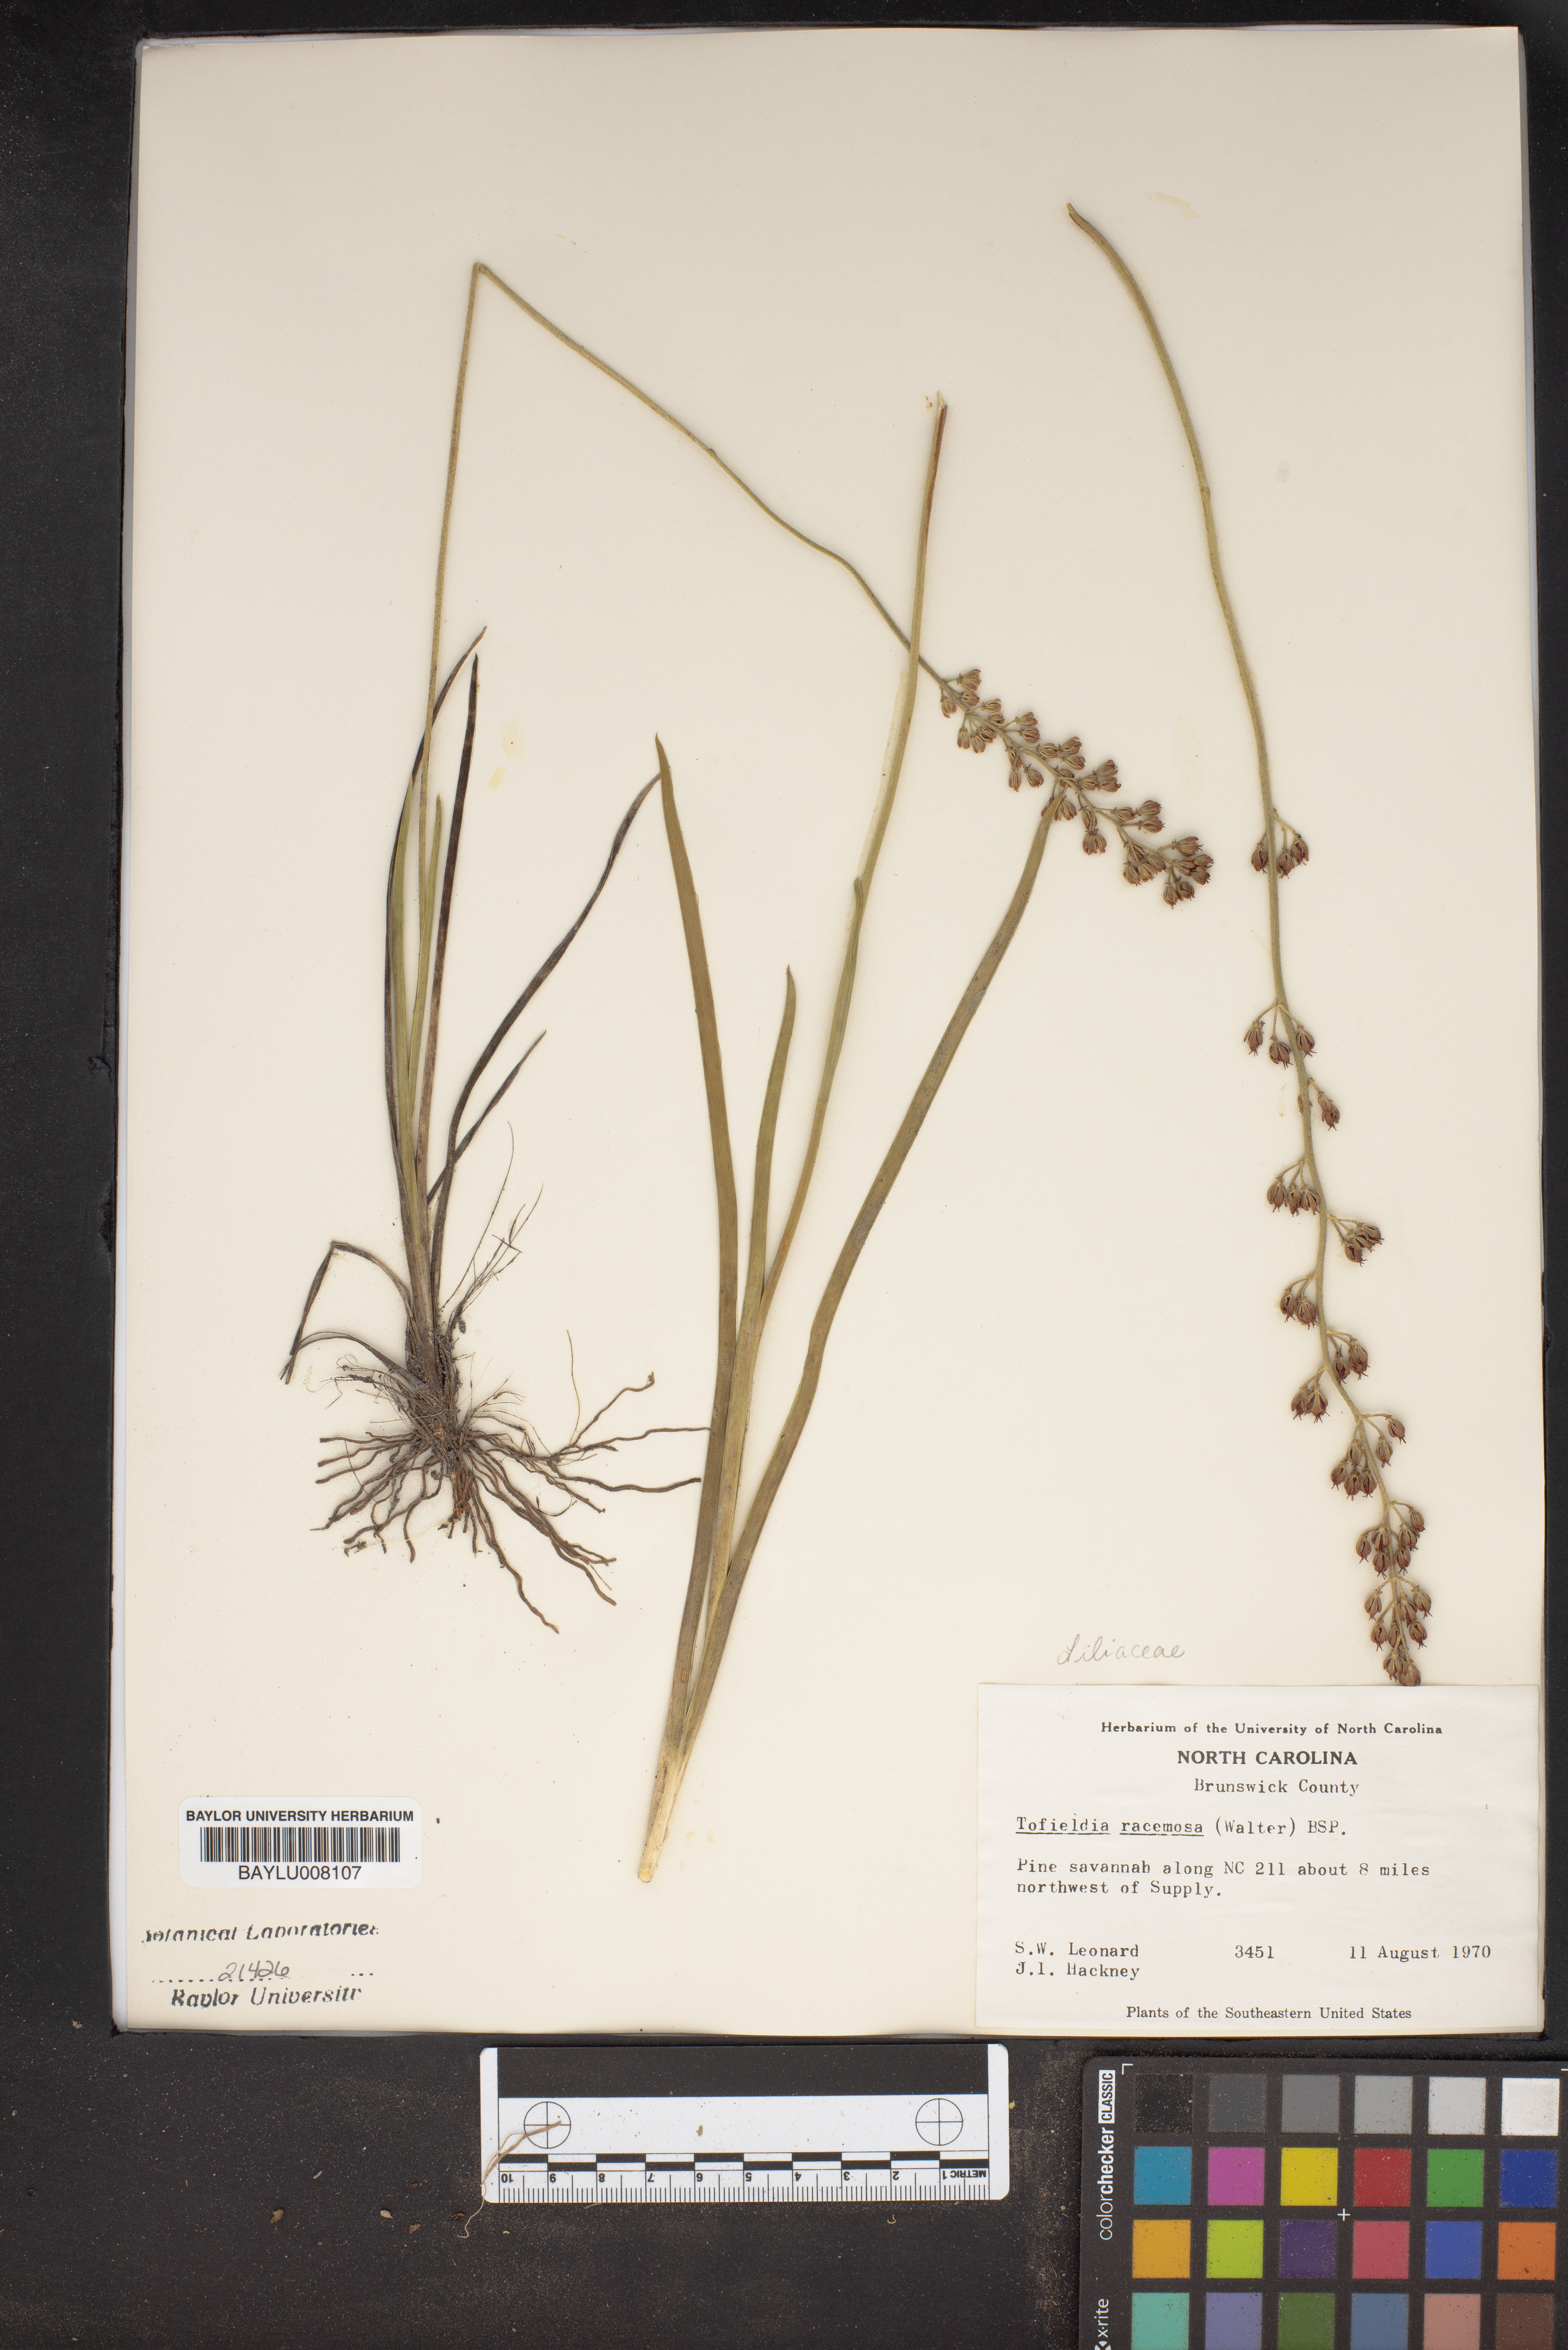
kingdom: Plantae
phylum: Tracheophyta
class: Liliopsida
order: Alismatales
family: Tofieldiaceae
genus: Triantha
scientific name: Triantha racemosa
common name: Coastal false asphodel
